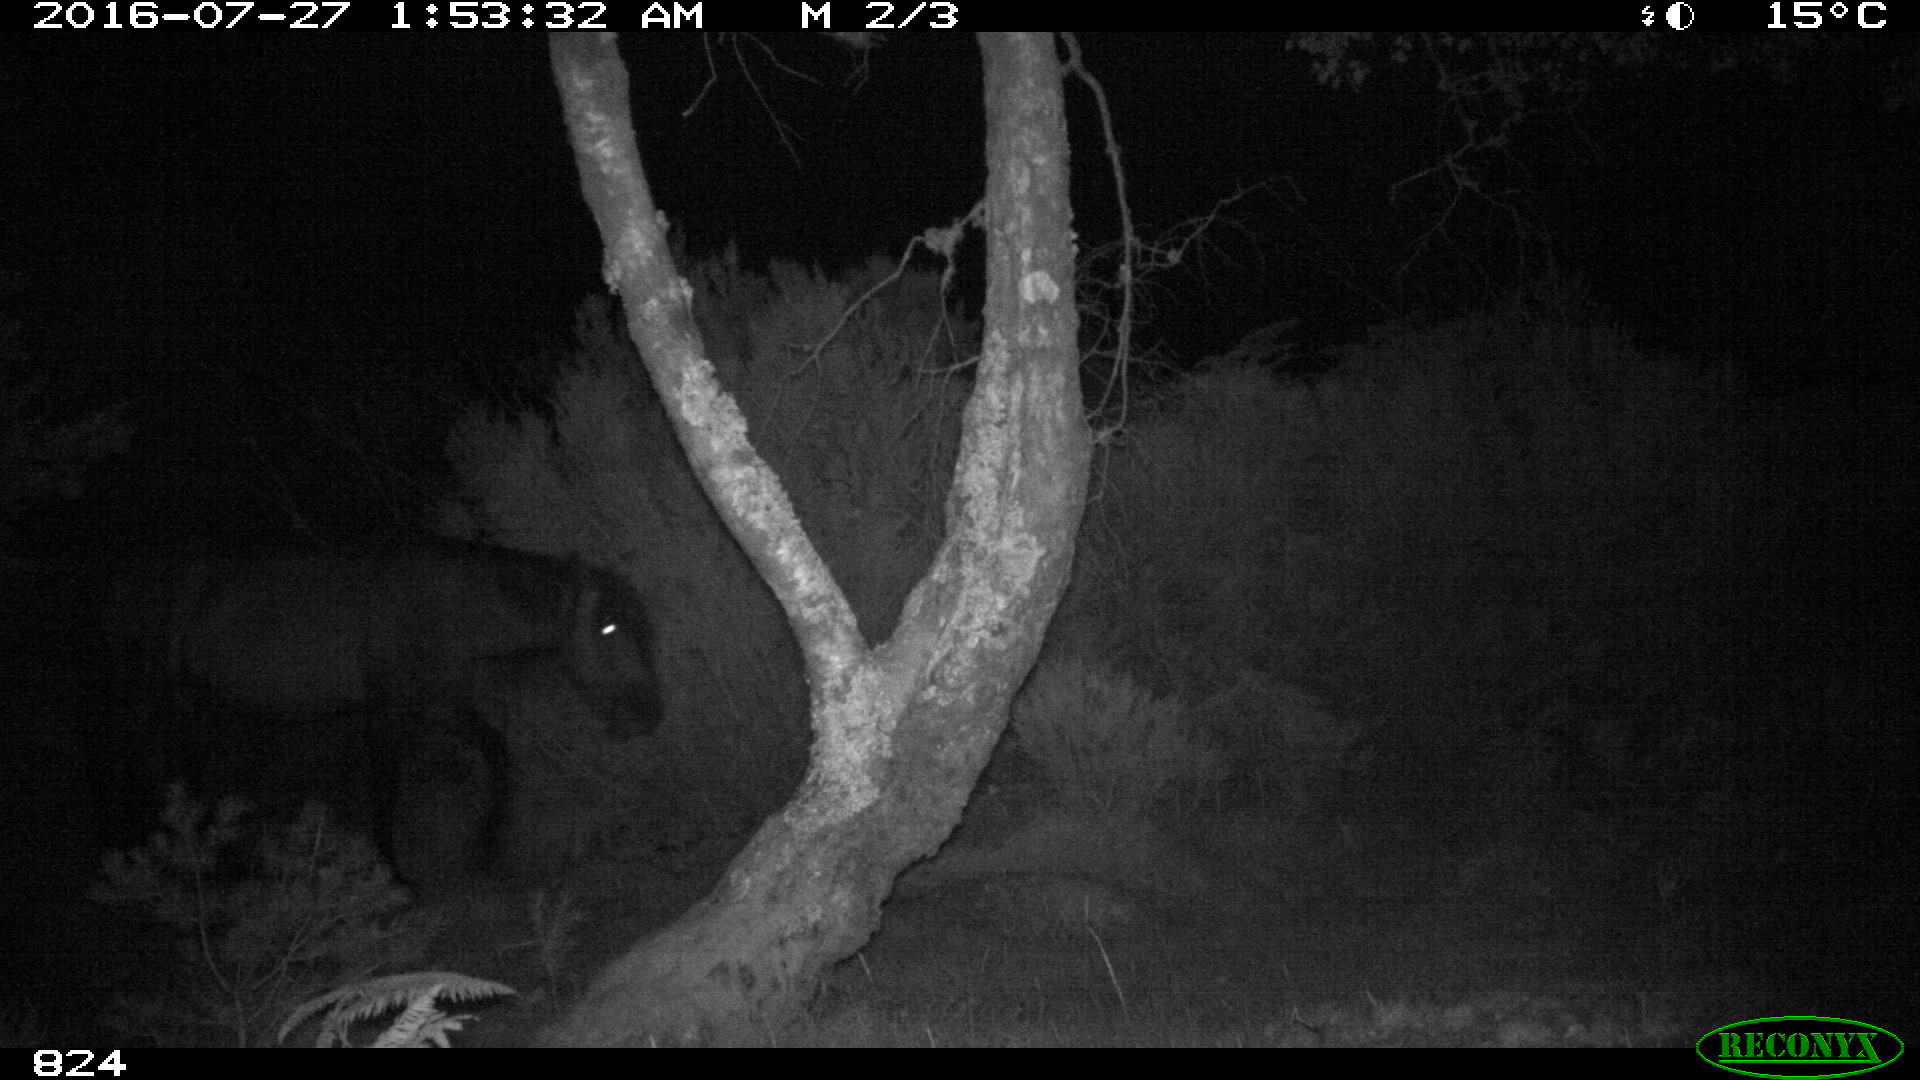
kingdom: Animalia
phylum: Chordata
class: Mammalia
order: Perissodactyla
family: Equidae
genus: Equus
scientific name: Equus caballus
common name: Horse
